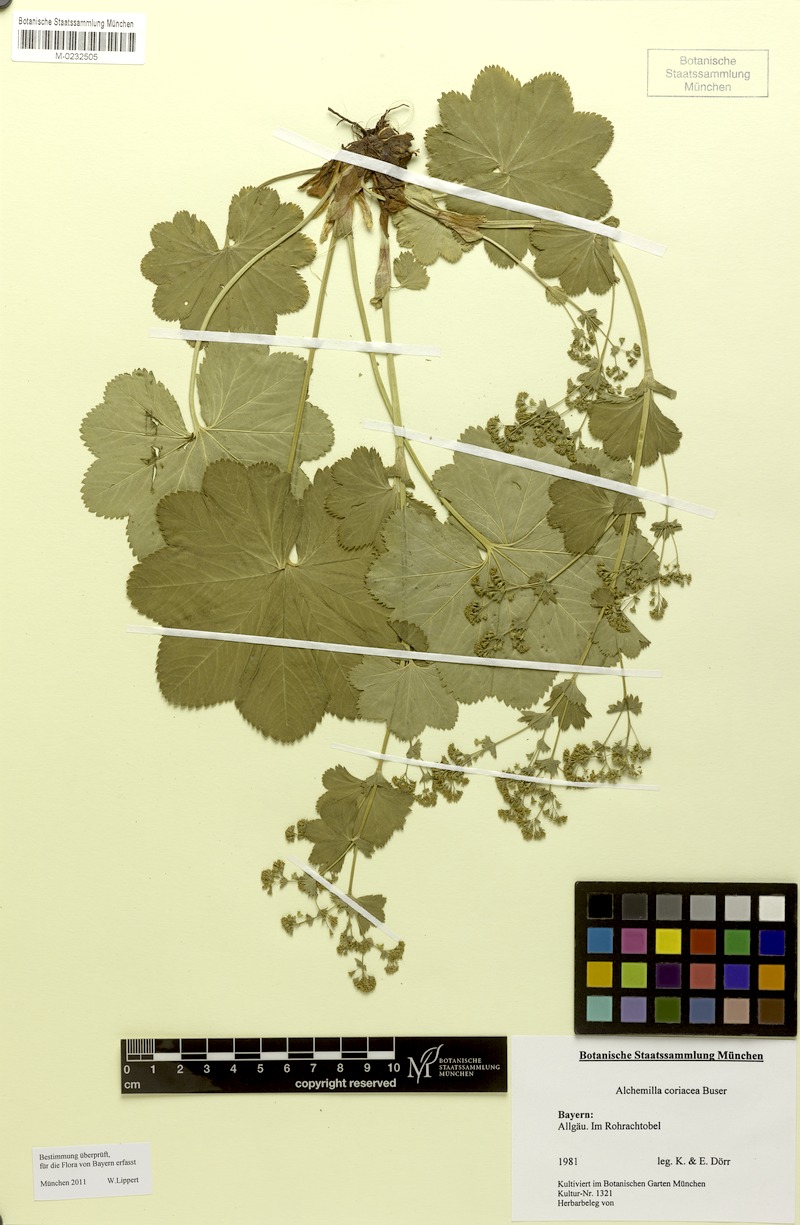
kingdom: Plantae
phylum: Tracheophyta
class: Magnoliopsida
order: Rosales
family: Rosaceae
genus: Alchemilla
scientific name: Alchemilla coriacea
